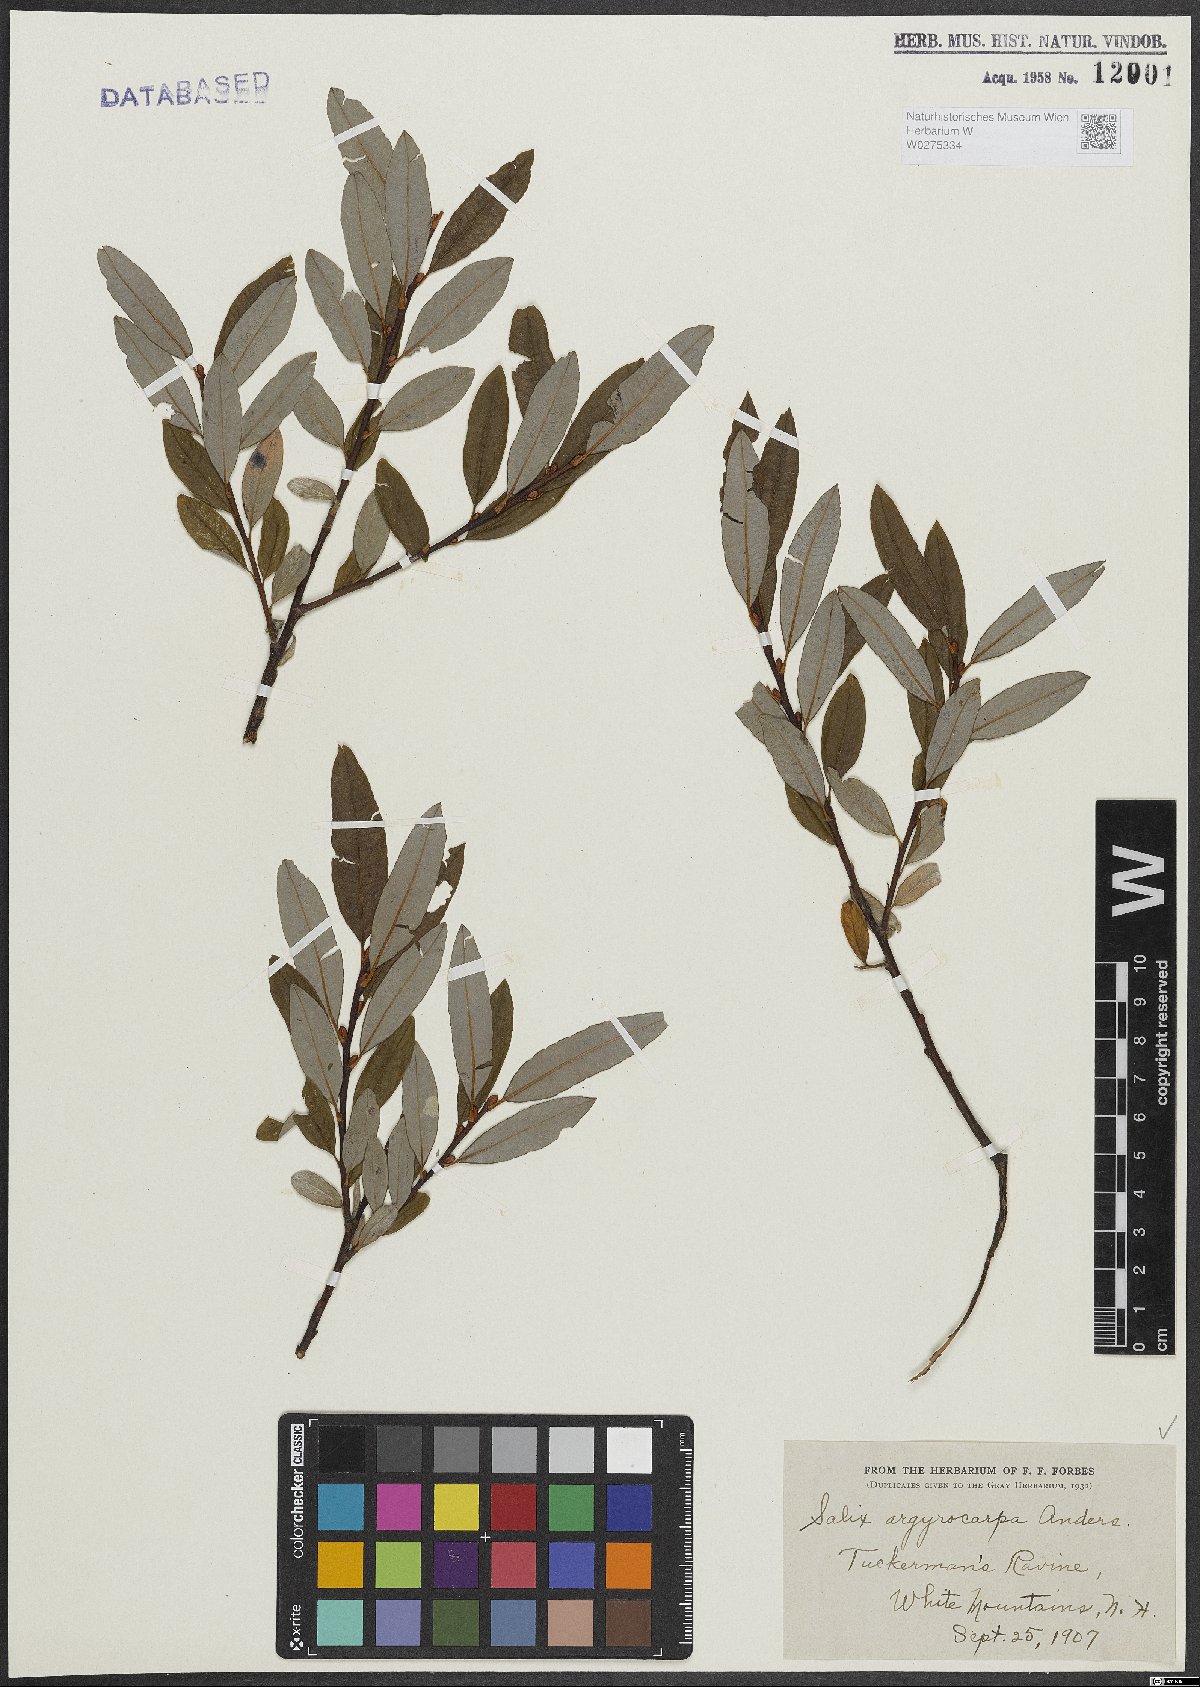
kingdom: Plantae
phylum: Tracheophyta
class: Magnoliopsida
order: Malpighiales
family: Salicaceae
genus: Salix
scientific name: Salix argyrocarpa
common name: Labrador willow
